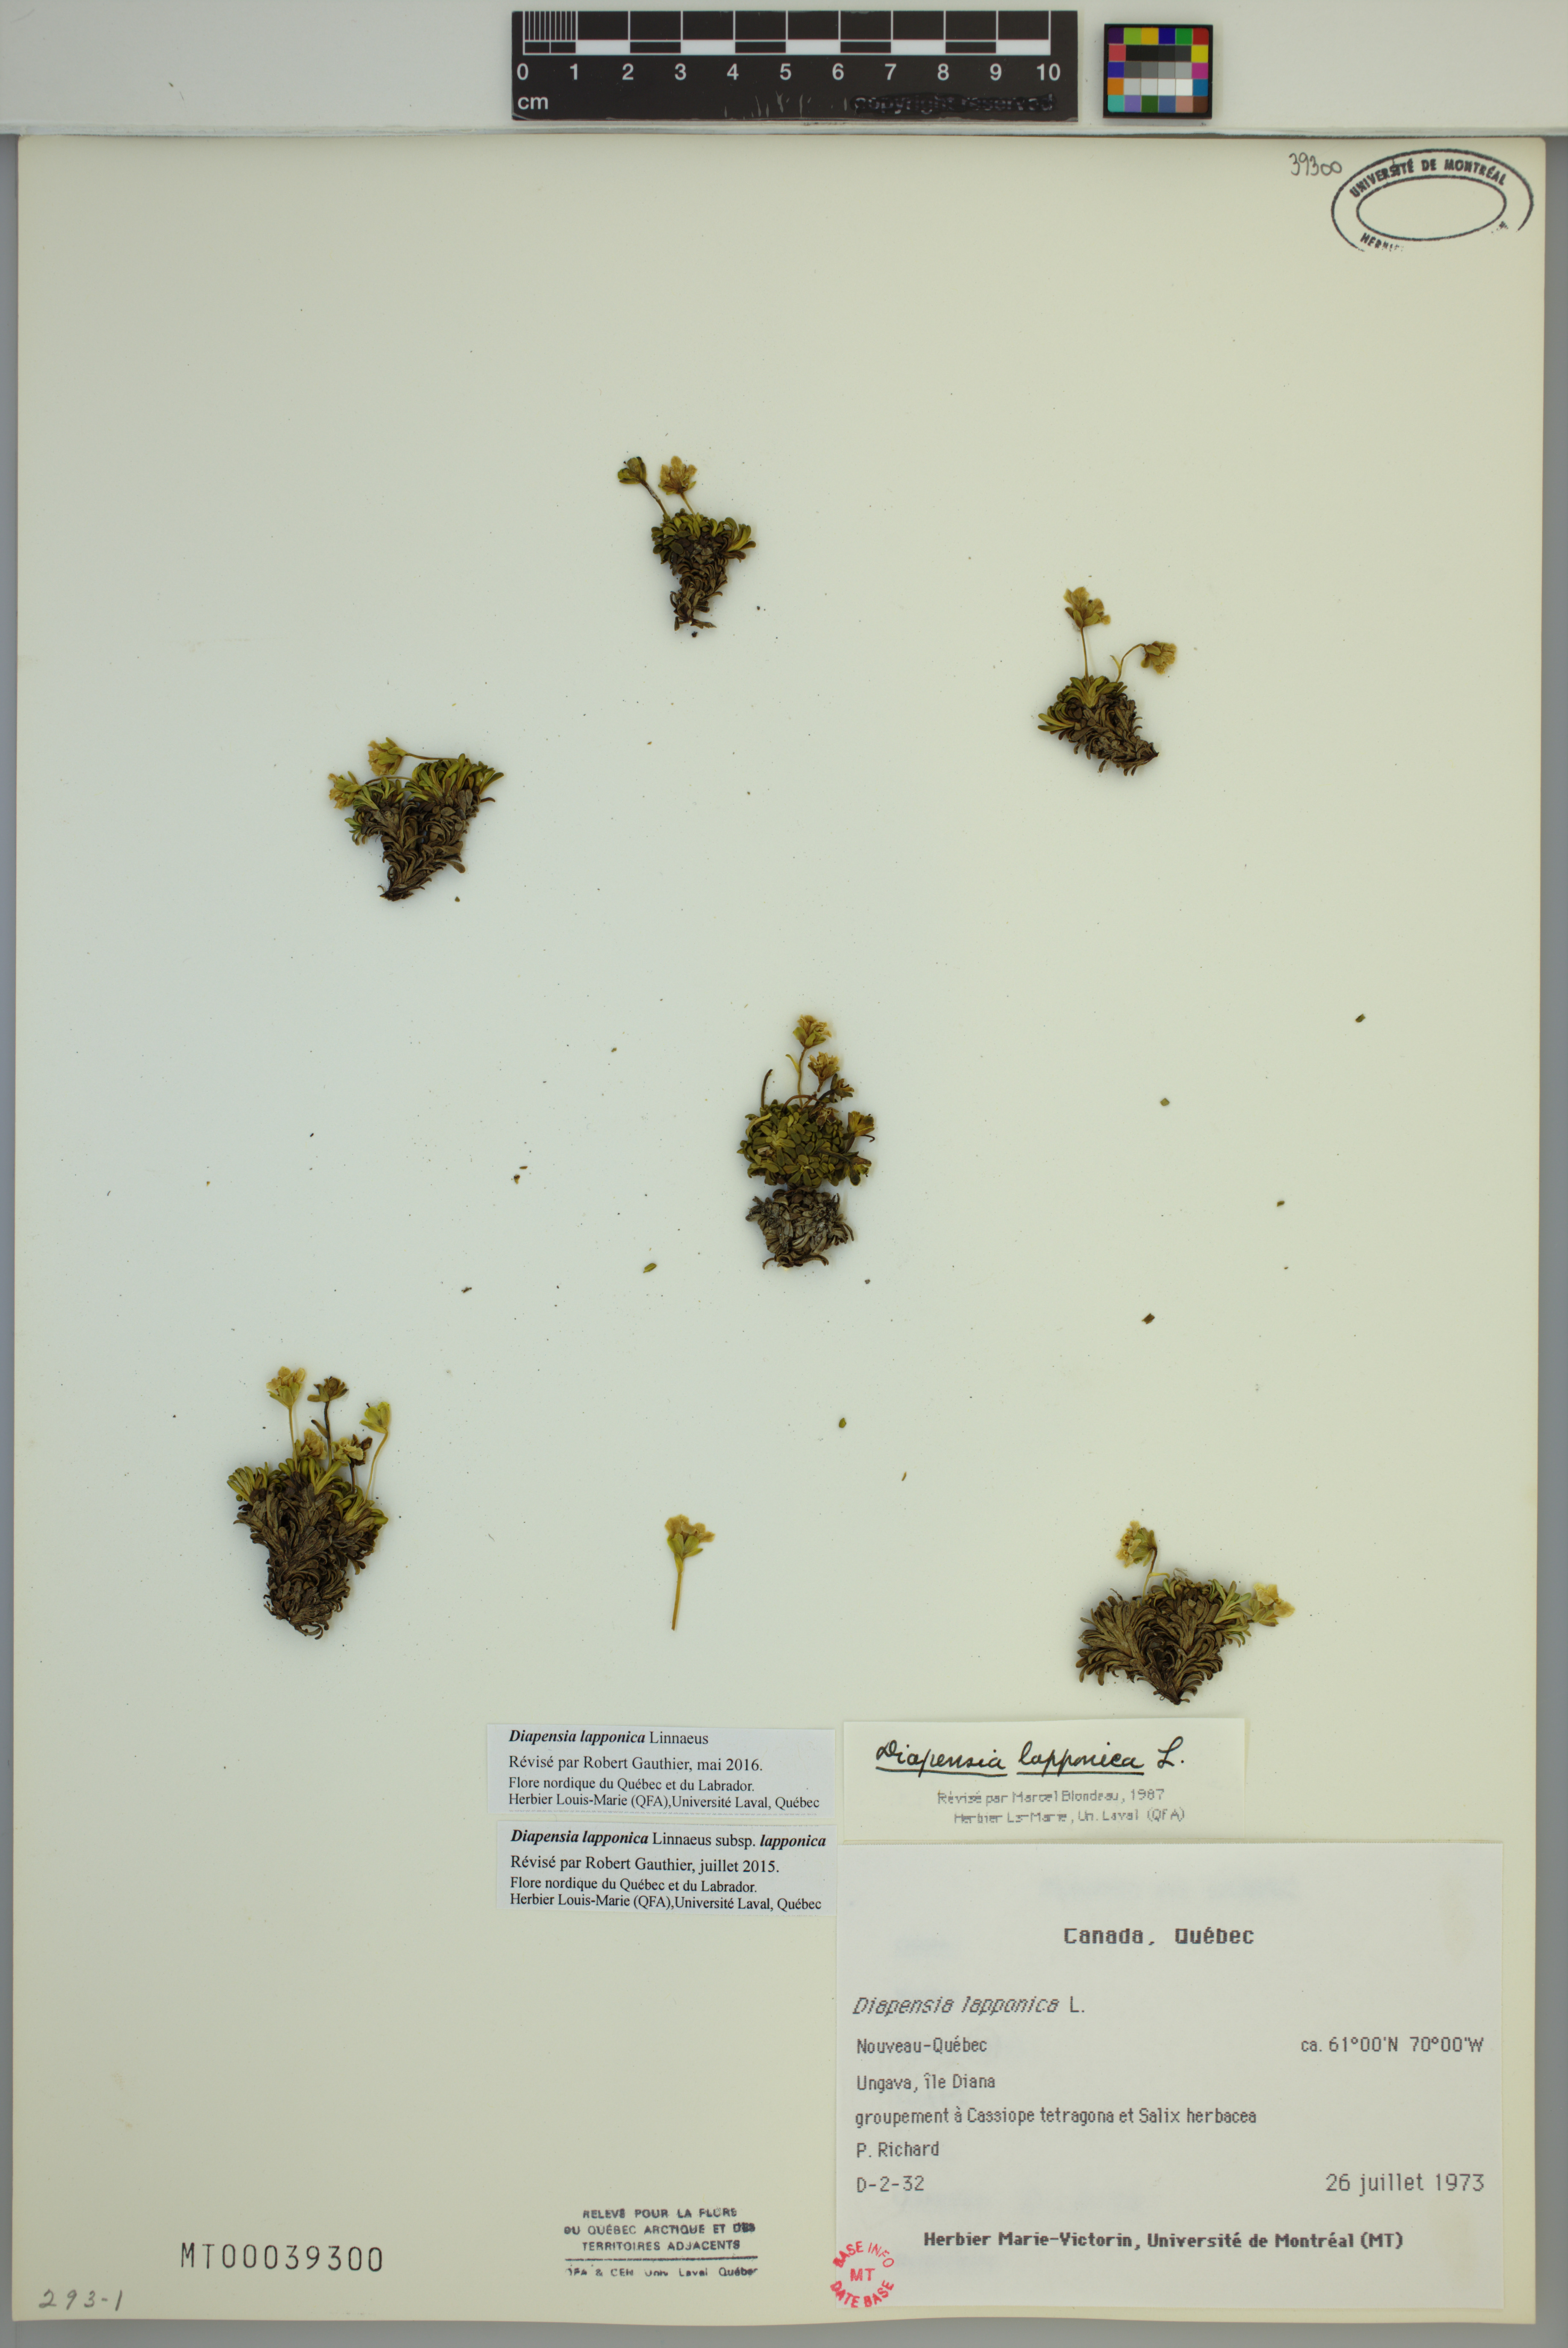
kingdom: Plantae
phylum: Tracheophyta
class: Magnoliopsida
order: Ericales
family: Diapensiaceae
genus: Diapensia
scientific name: Diapensia lapponica
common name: Diapensia
